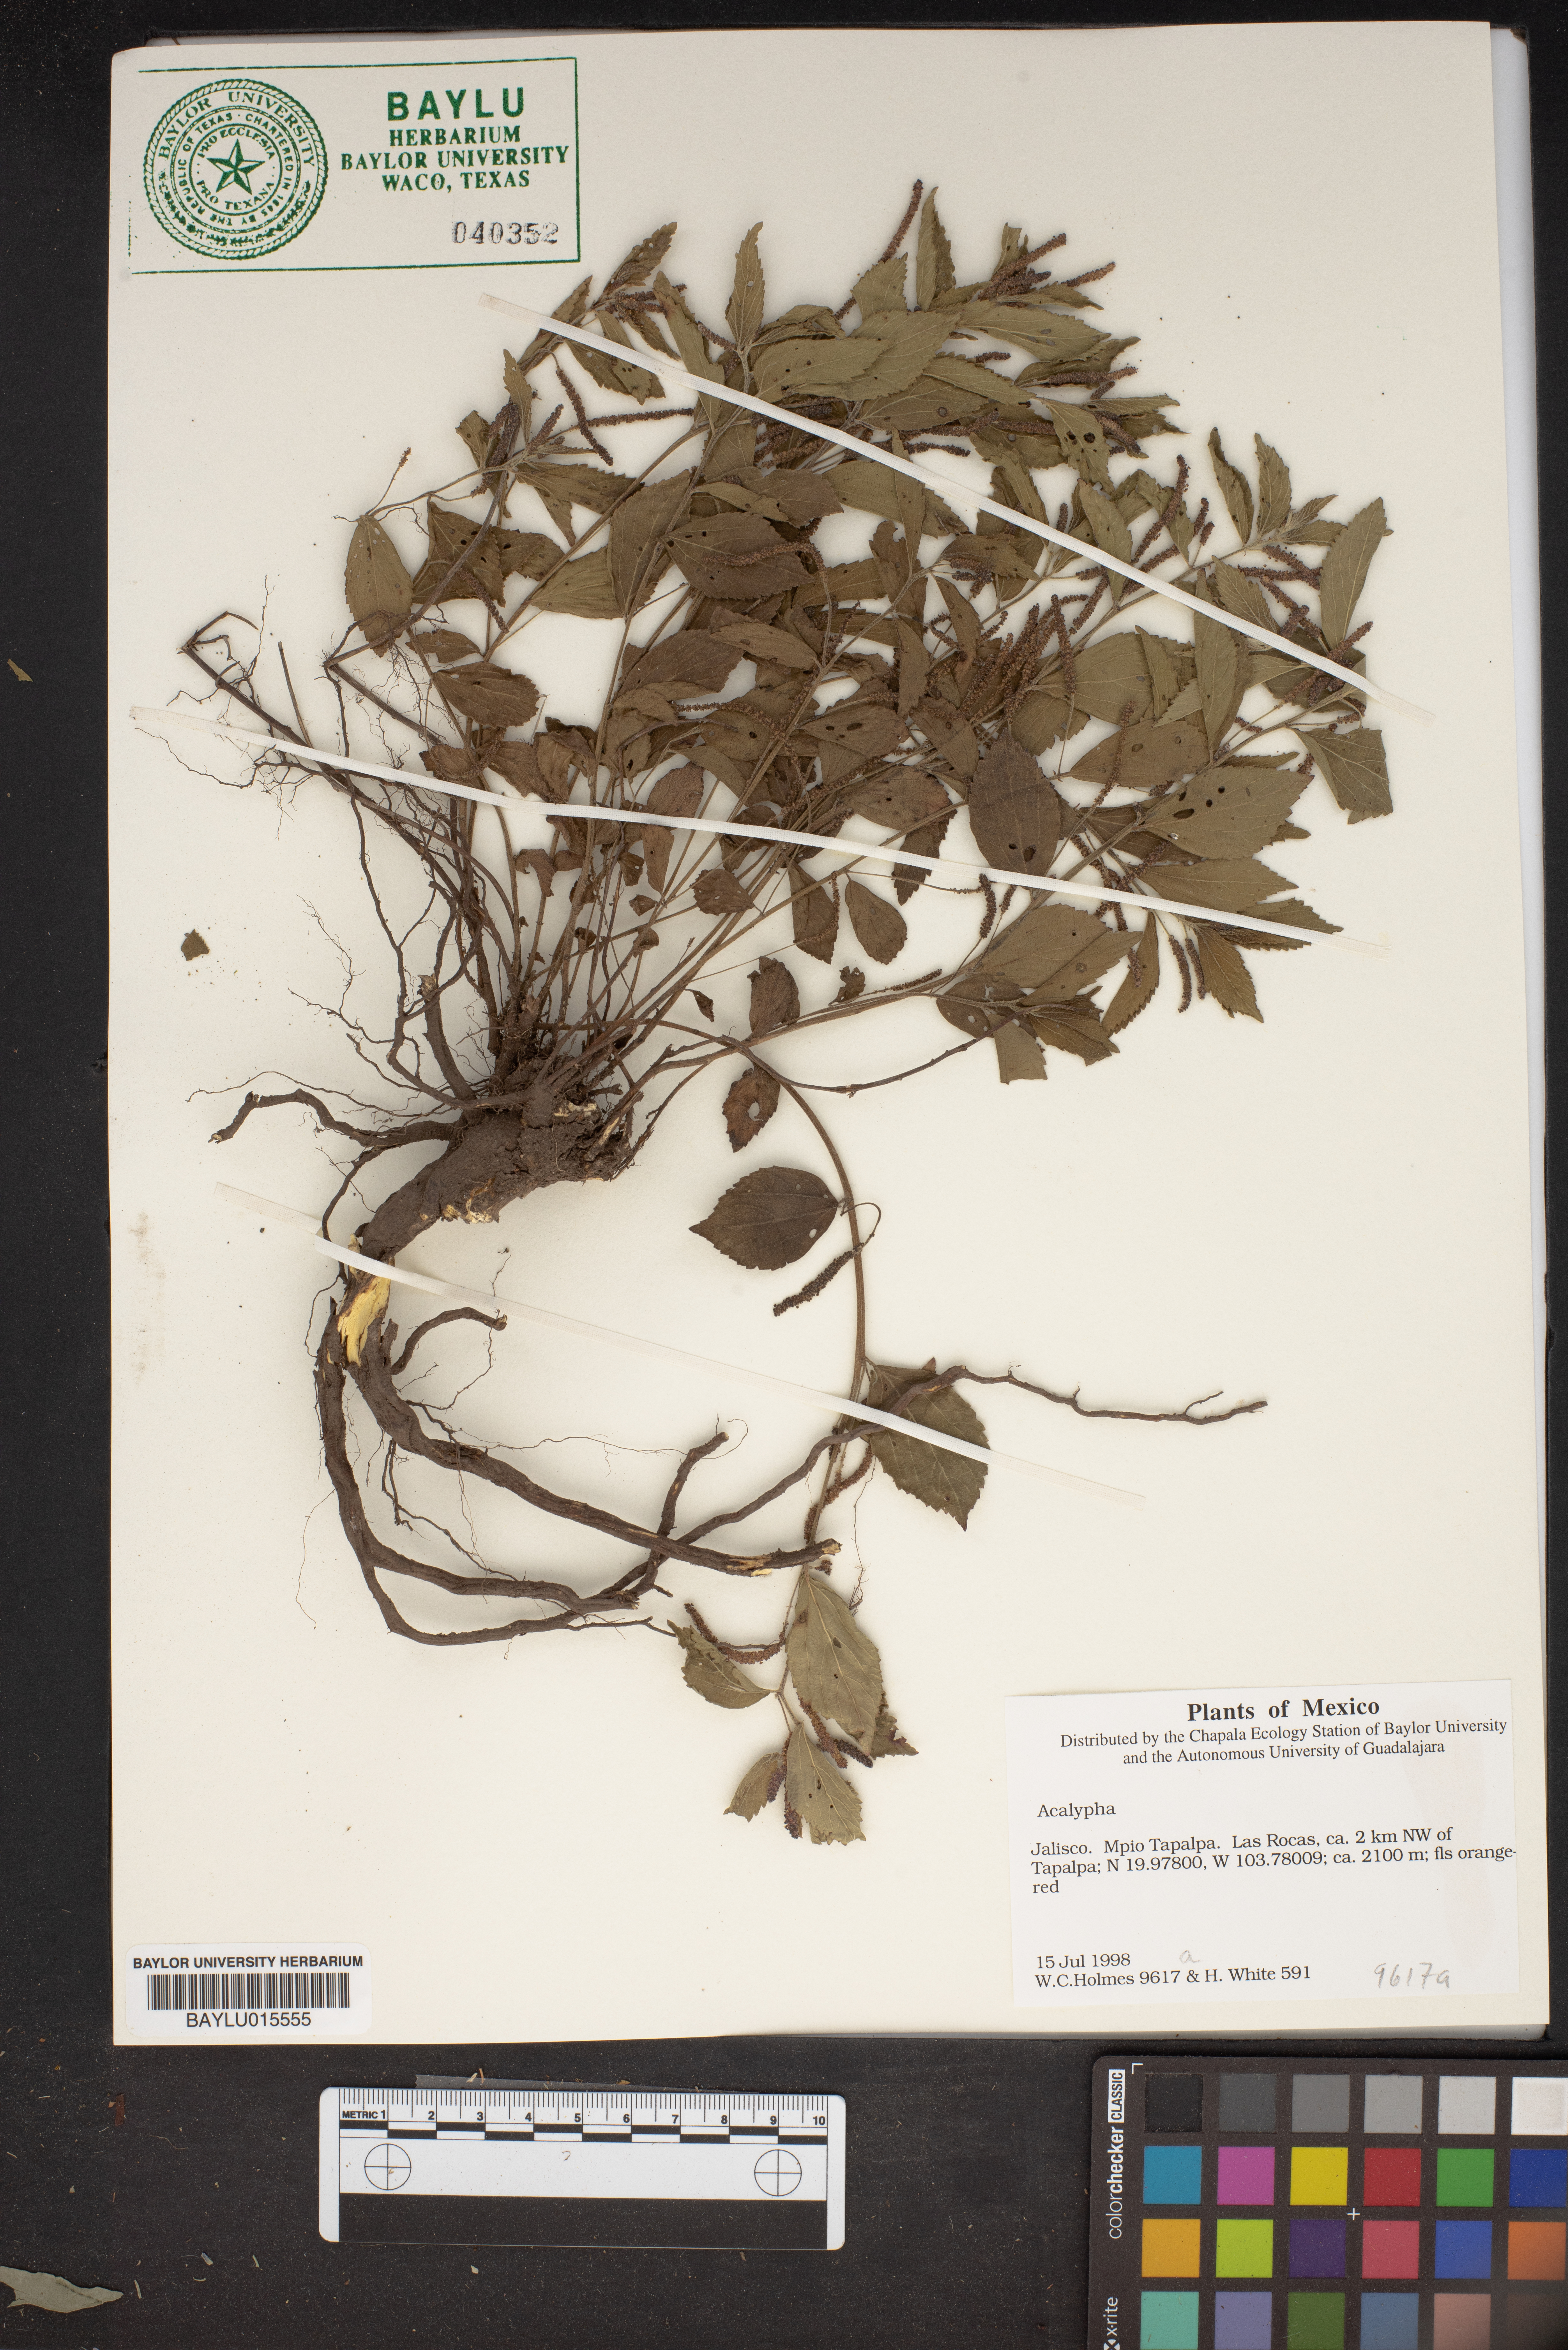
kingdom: Plantae
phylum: Tracheophyta
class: Magnoliopsida
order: Malpighiales
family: Euphorbiaceae
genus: Acalypha
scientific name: Acalypha
